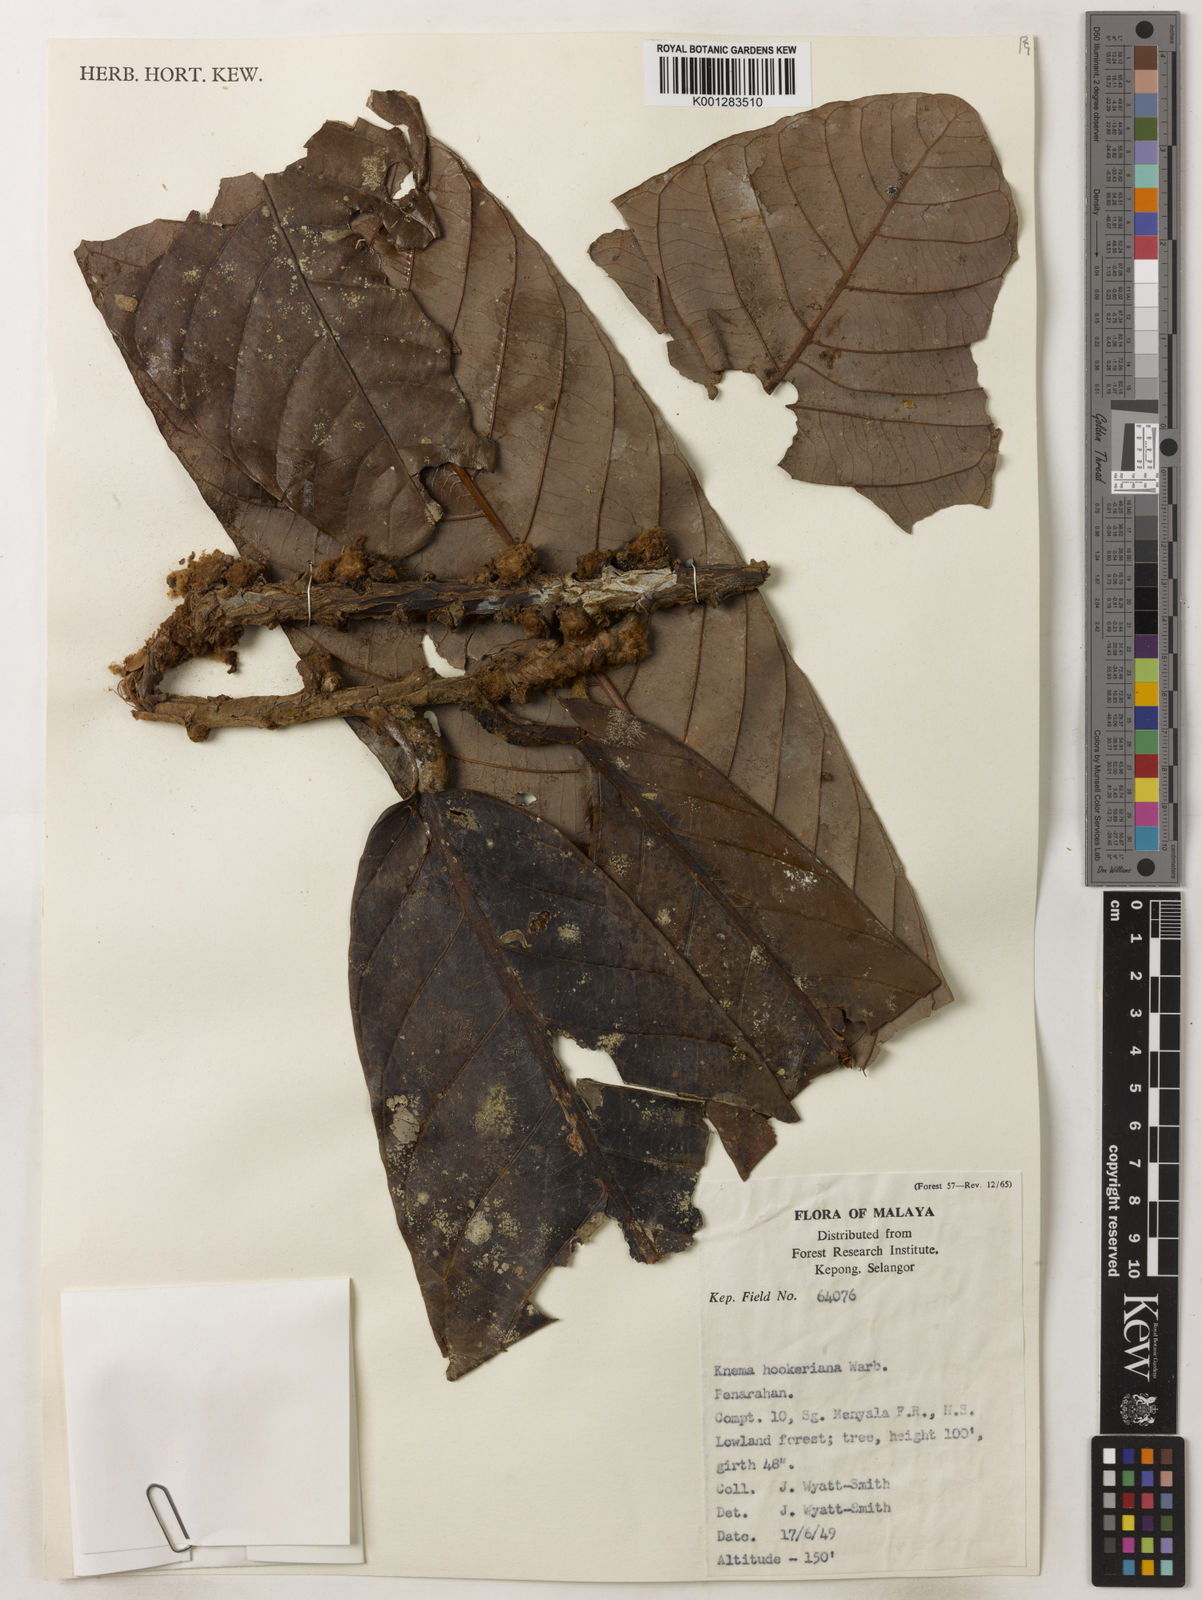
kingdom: Plantae
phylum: Tracheophyta
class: Magnoliopsida
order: Magnoliales
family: Myristicaceae
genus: Knema
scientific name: Knema hookeriana
